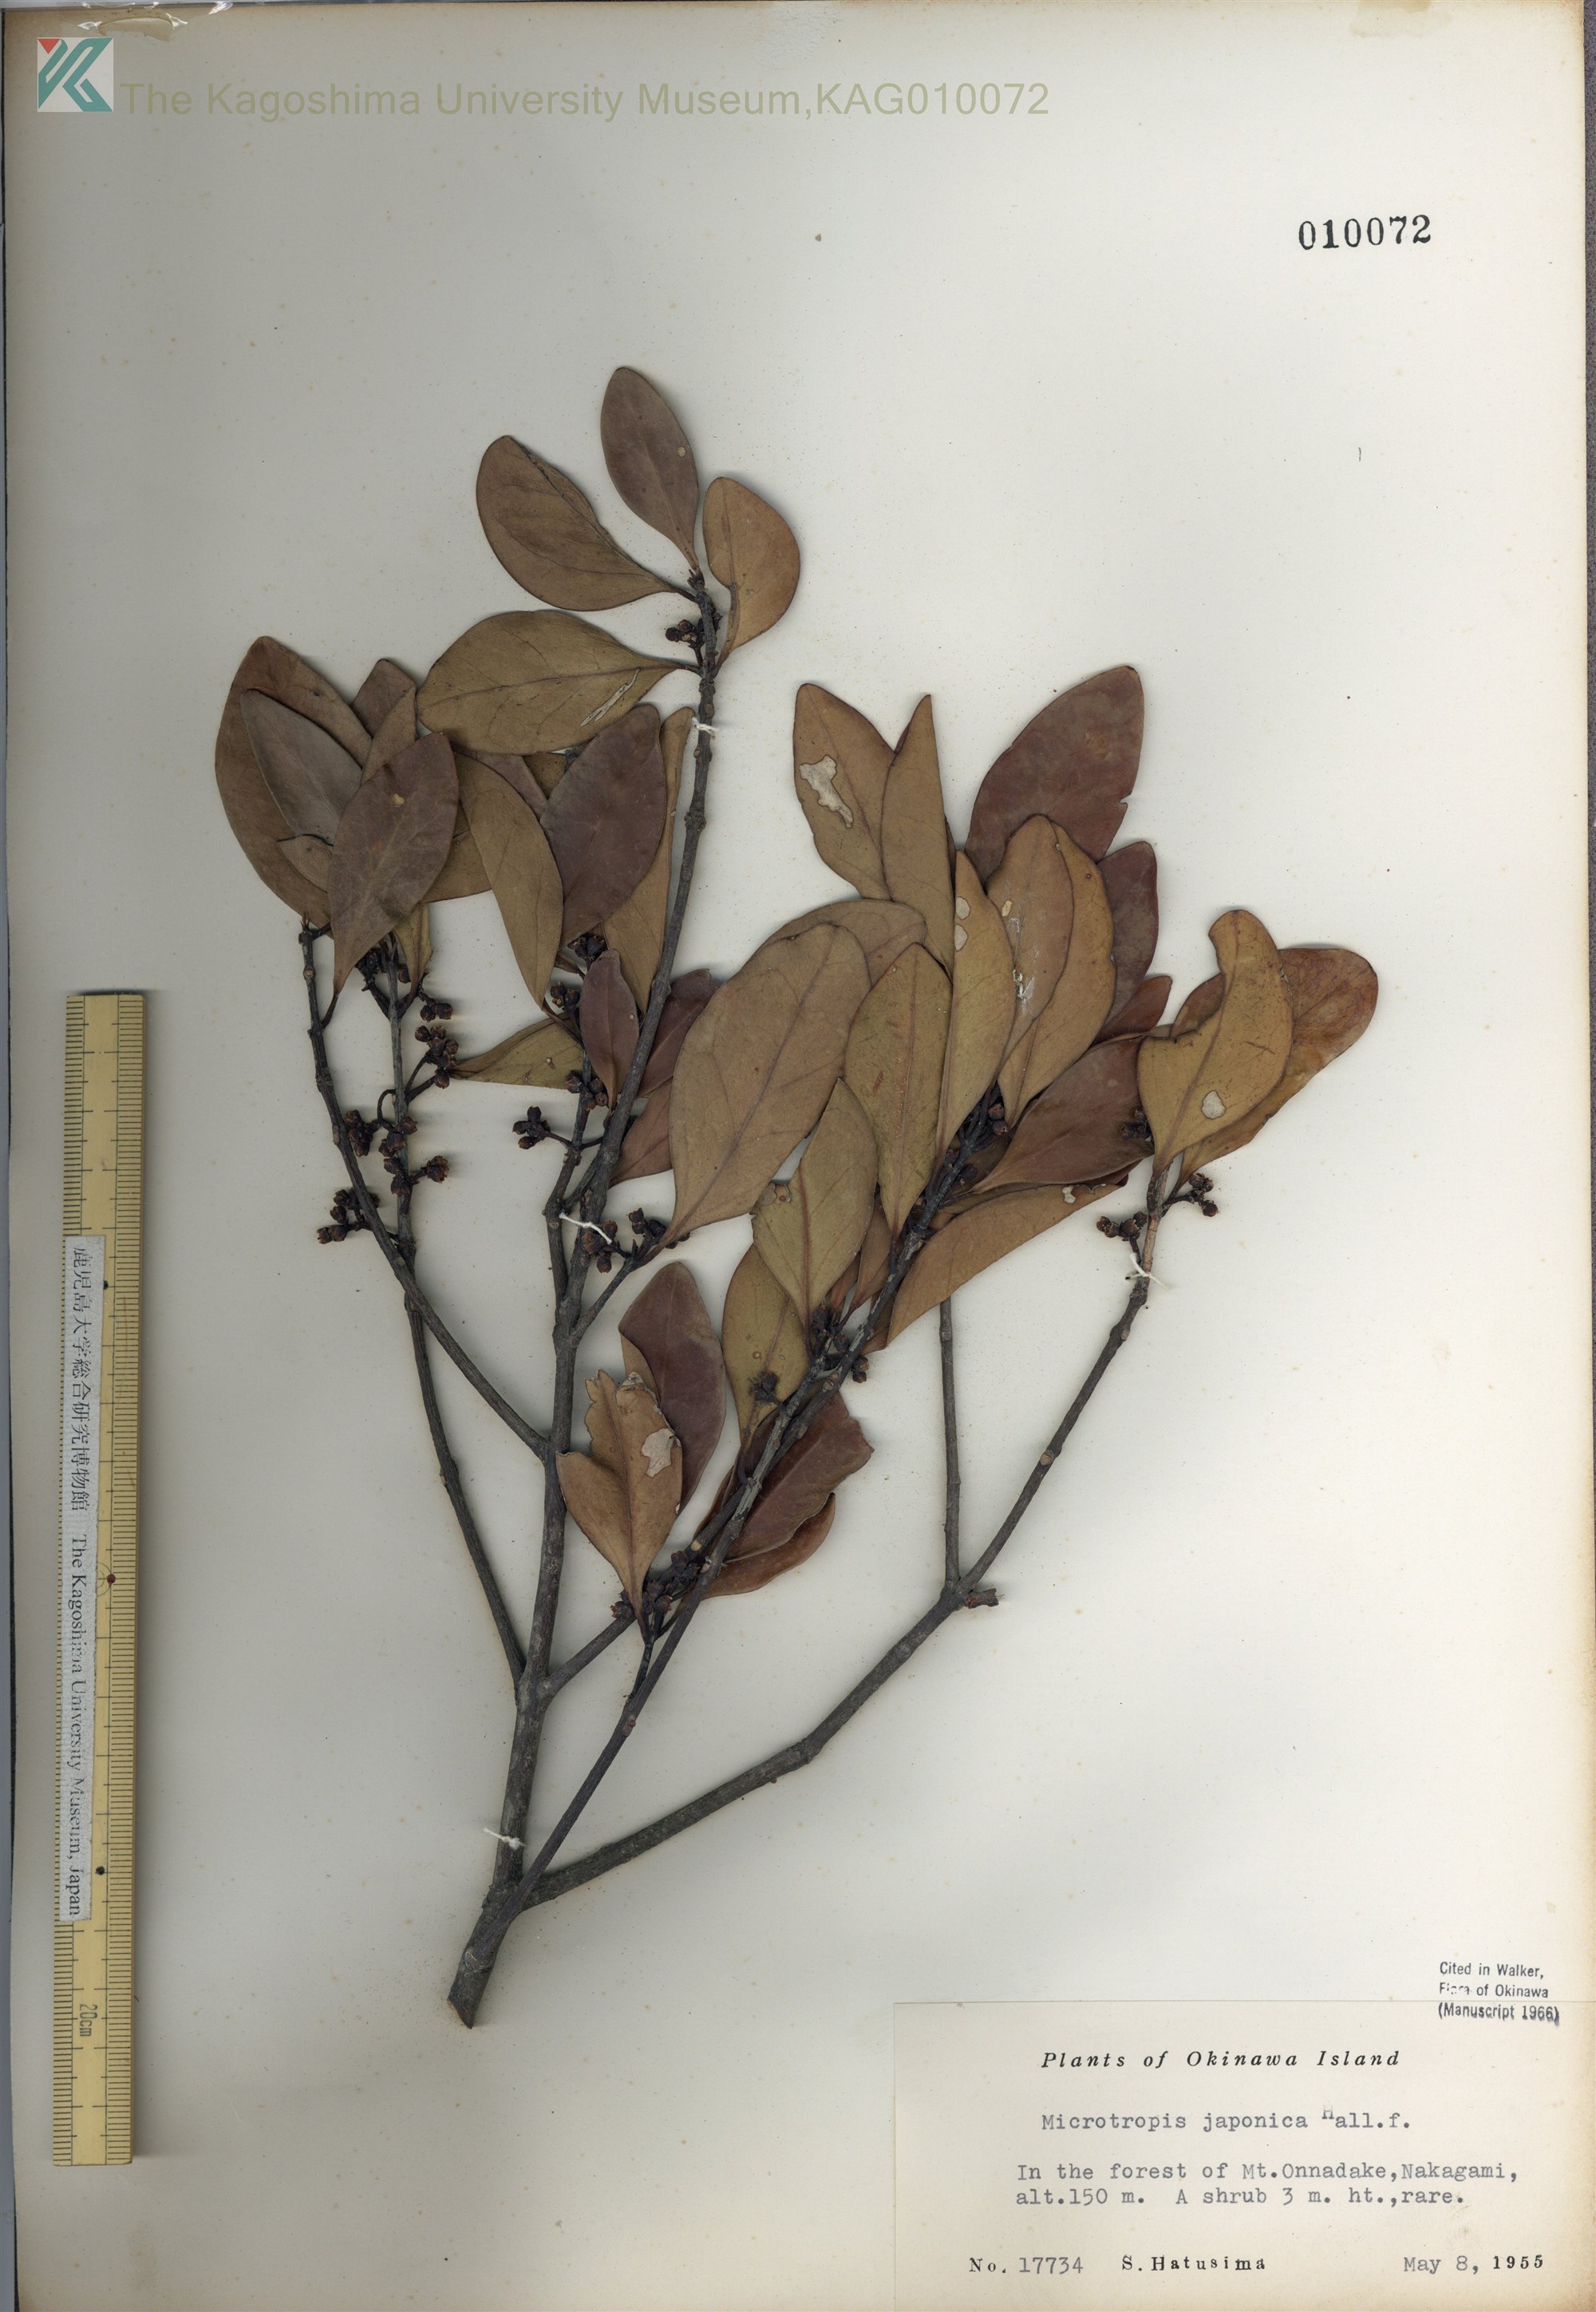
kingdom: Plantae
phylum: Tracheophyta
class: Magnoliopsida
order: Celastrales
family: Celastraceae
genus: Microtropis
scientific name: Microtropis japonica
